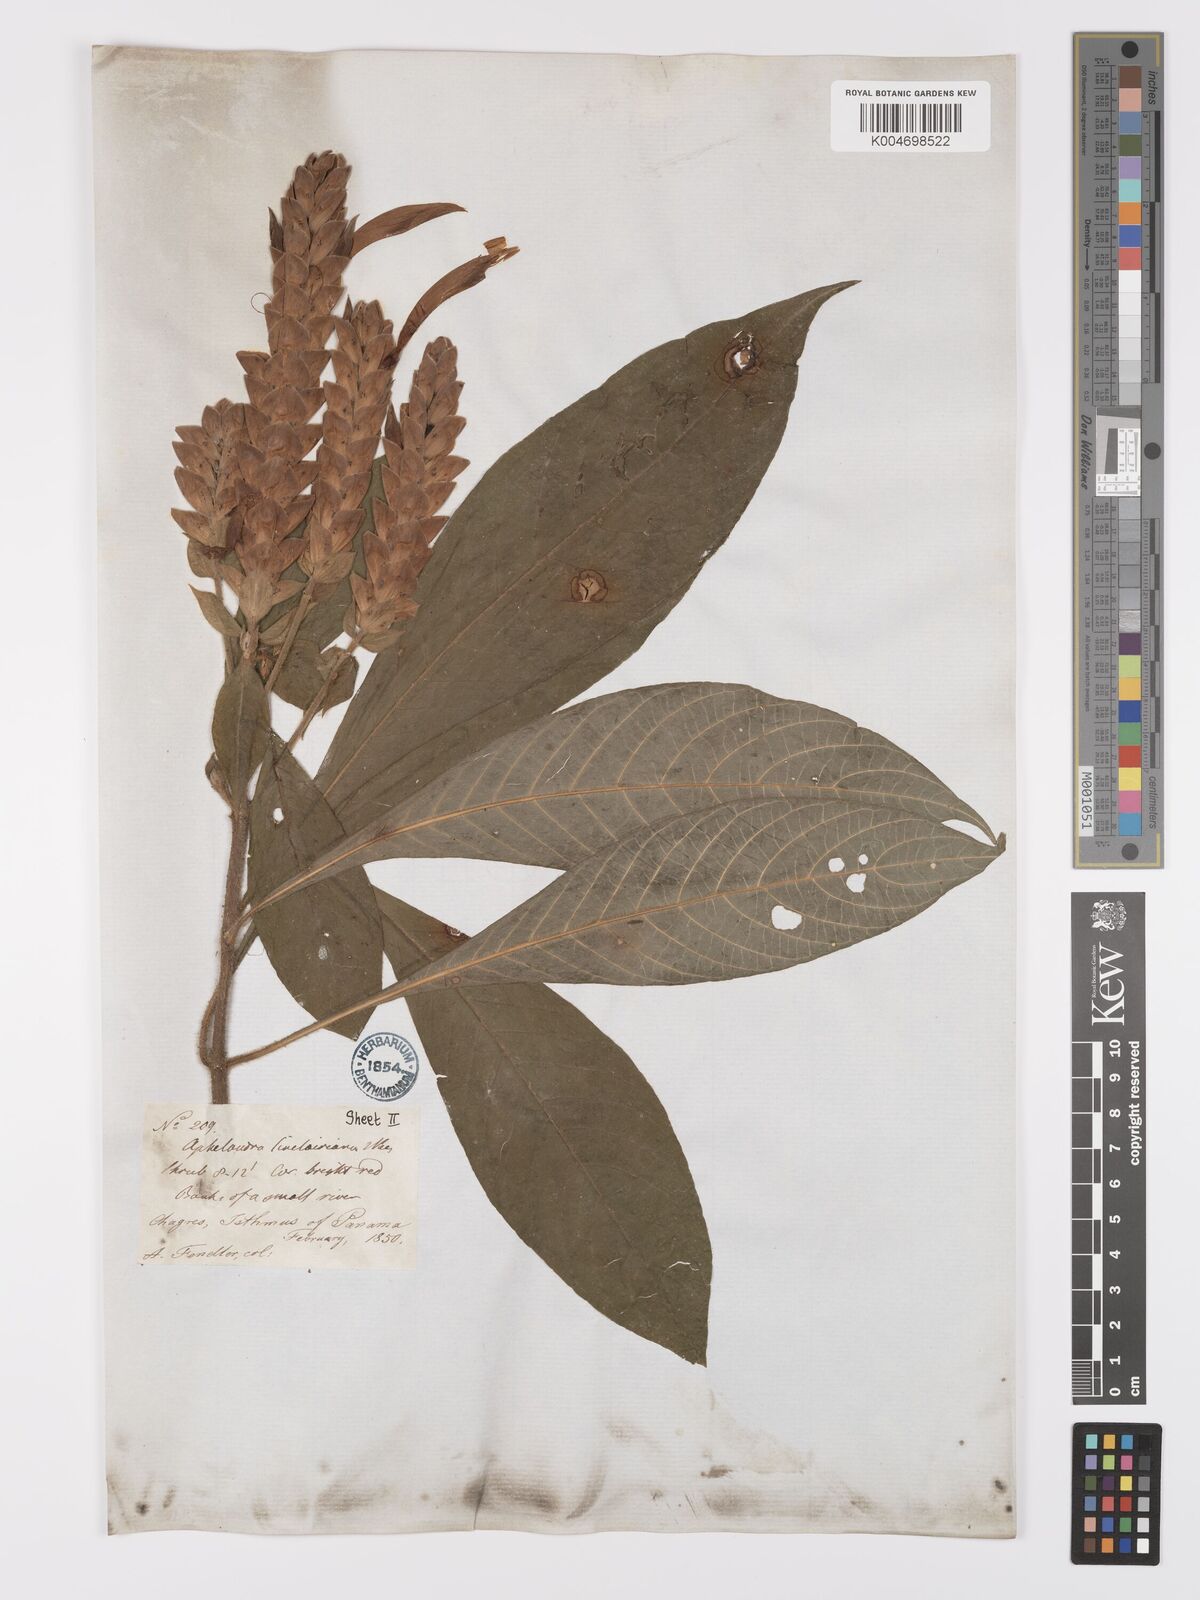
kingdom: Plantae
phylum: Tracheophyta
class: Magnoliopsida
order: Lamiales
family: Acanthaceae
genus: Aphelandra
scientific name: Aphelandra sinclairiana
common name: Coral aphelandra
